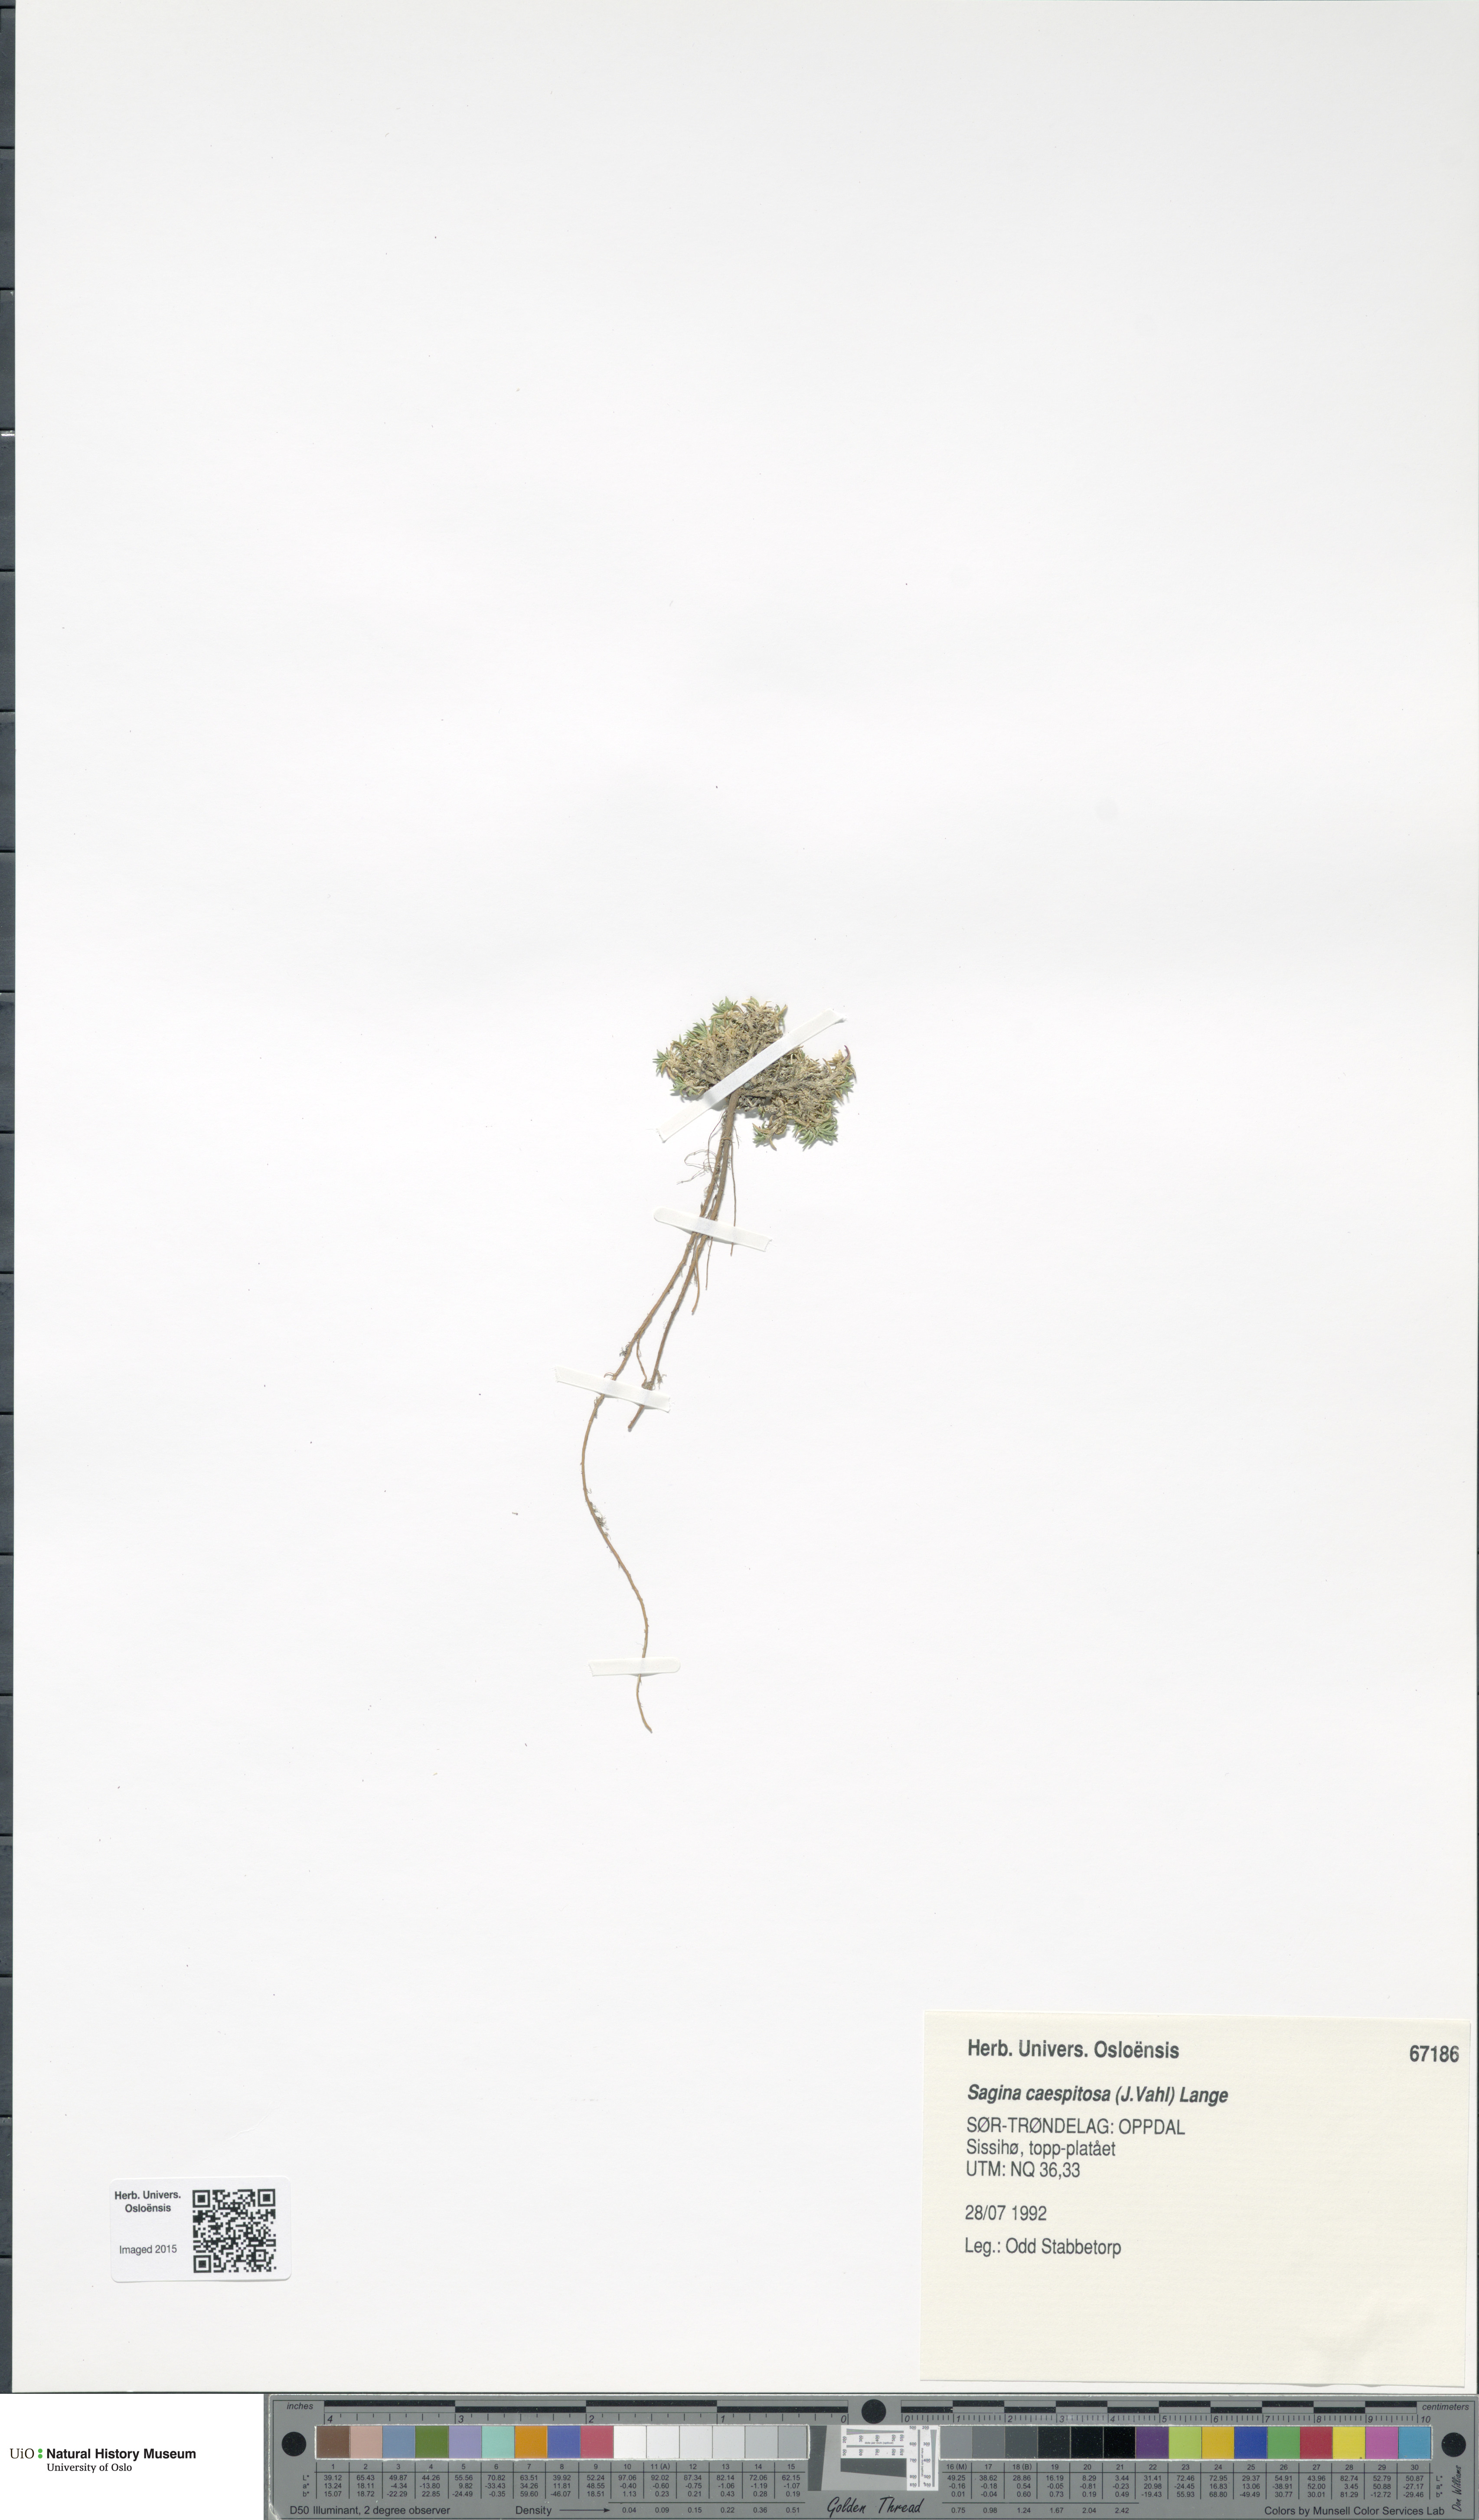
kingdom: Plantae
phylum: Tracheophyta
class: Magnoliopsida
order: Caryophyllales
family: Caryophyllaceae
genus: Sagina
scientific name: Sagina caespitosa
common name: Tufted pearlwort
